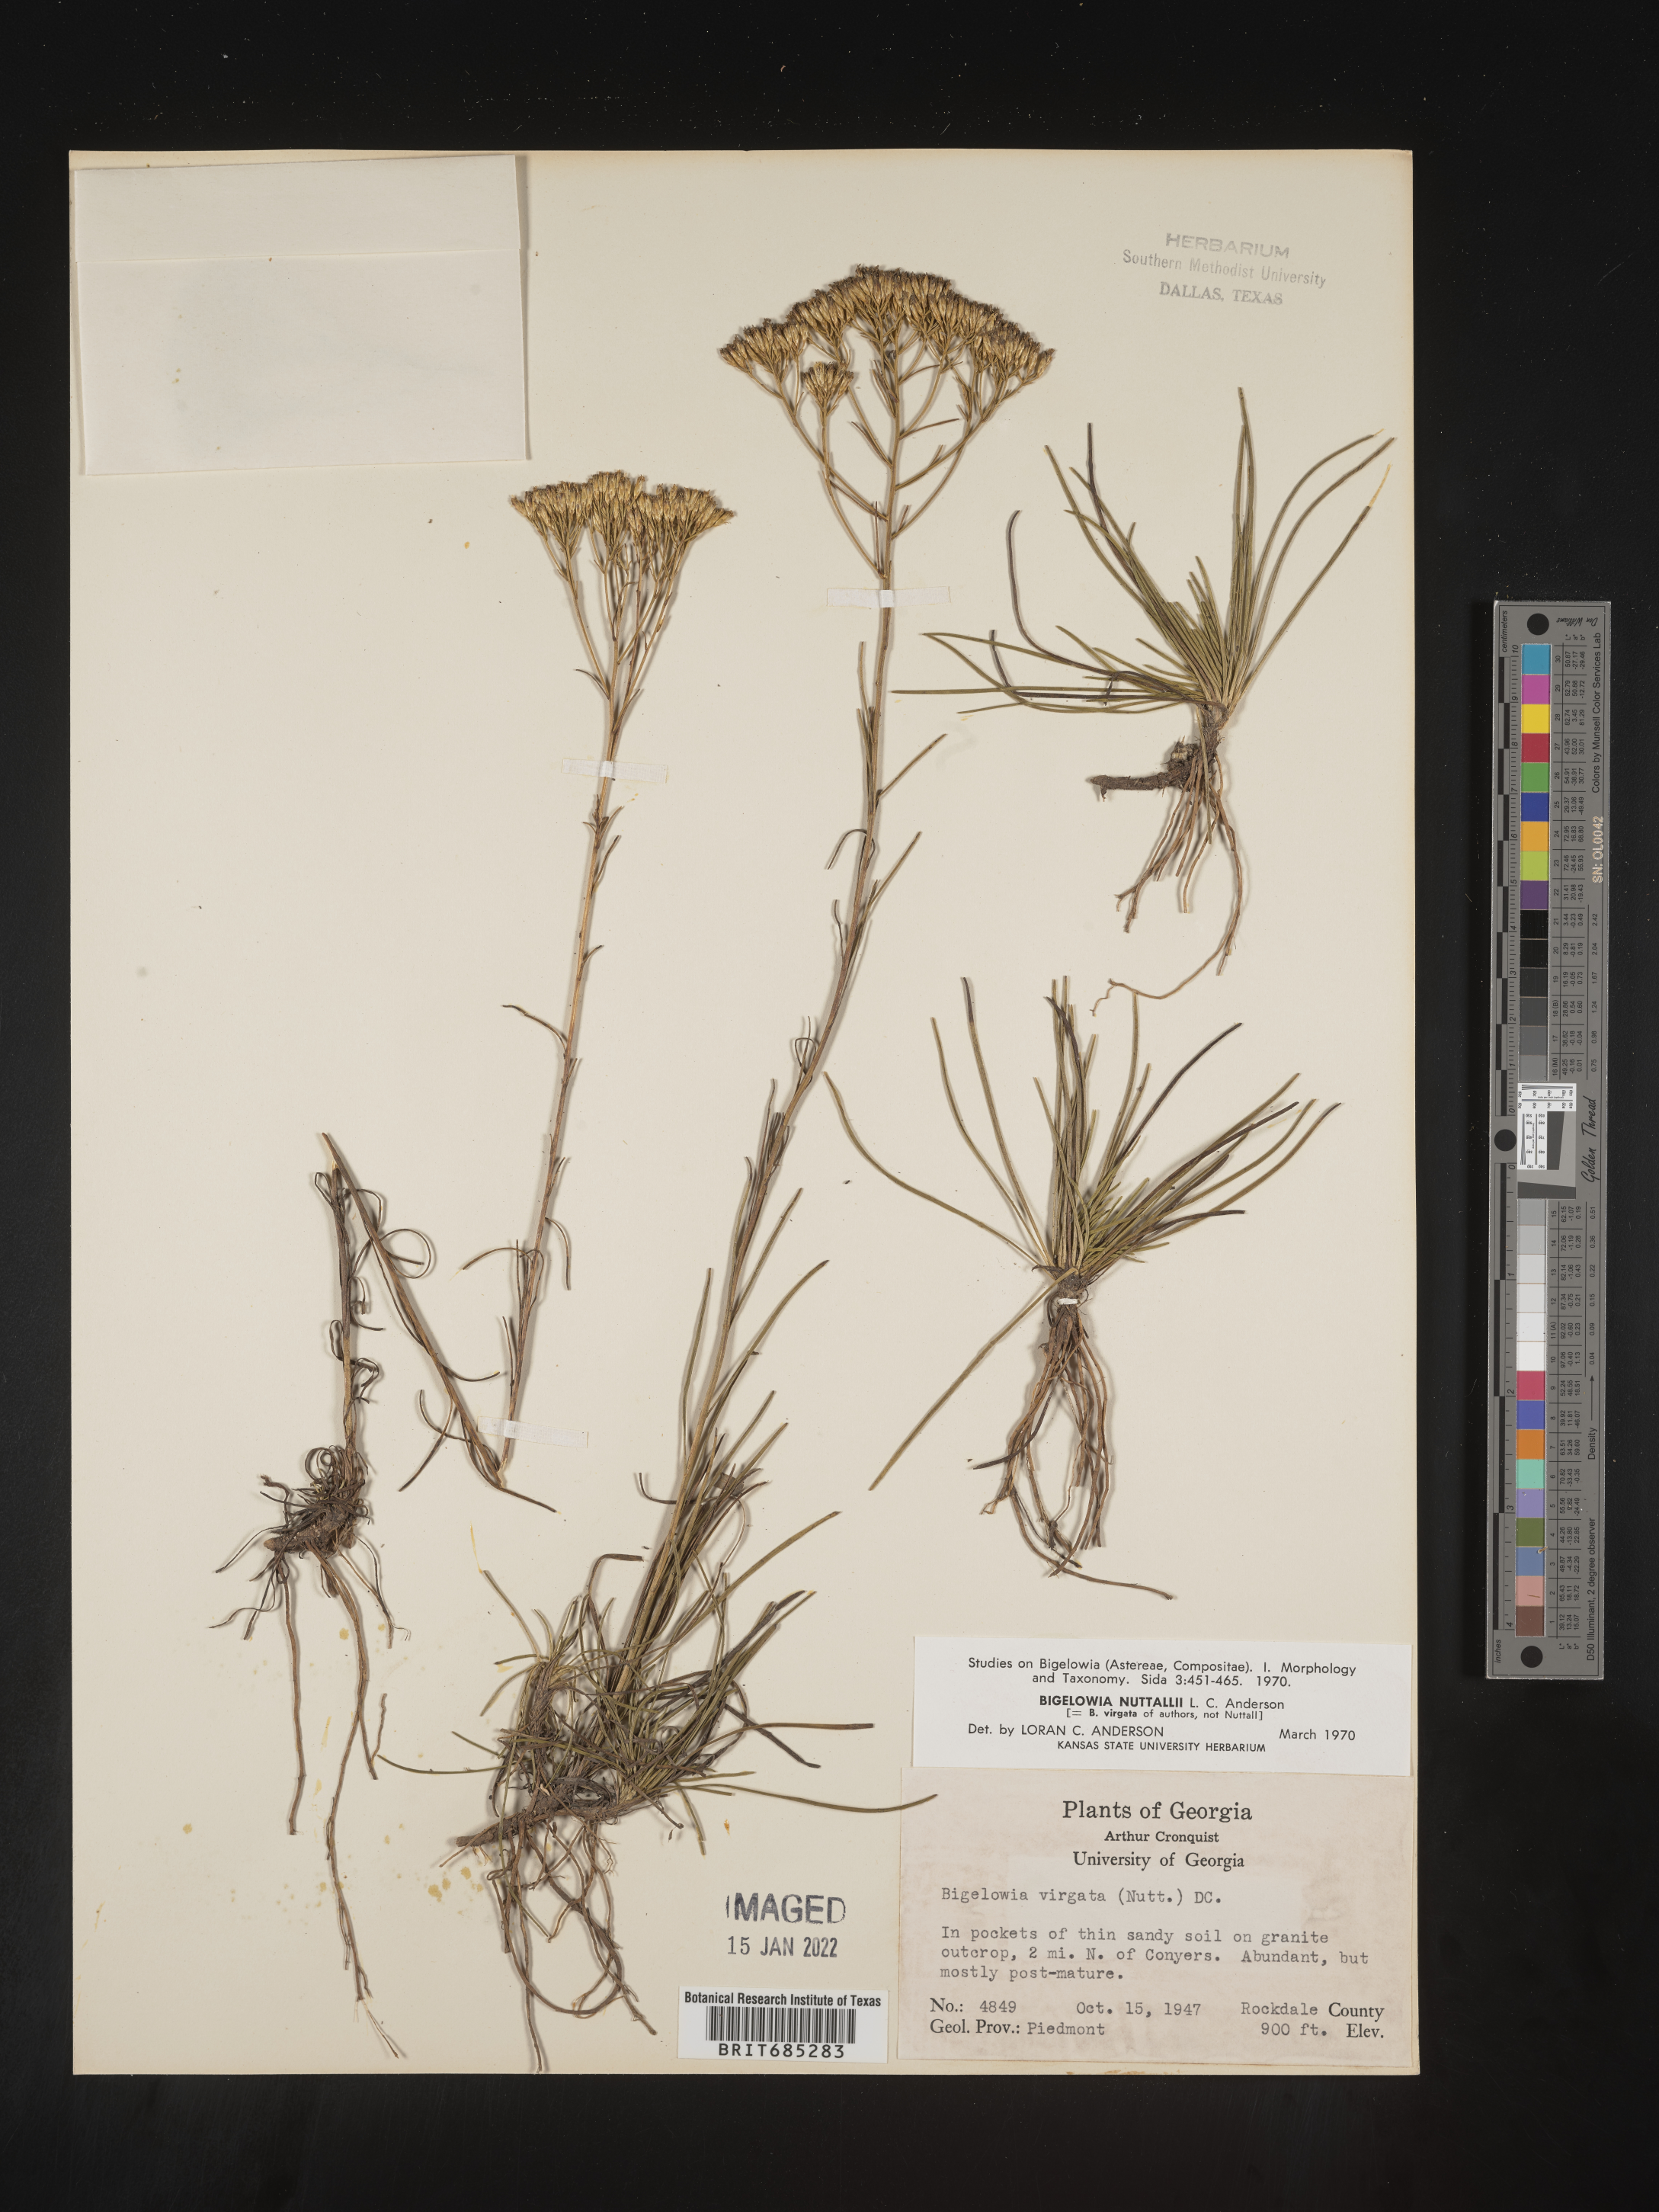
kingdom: Plantae
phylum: Tracheophyta
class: Magnoliopsida
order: Asterales
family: Asteraceae
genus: Bigelowia
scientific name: Bigelowia nudata
